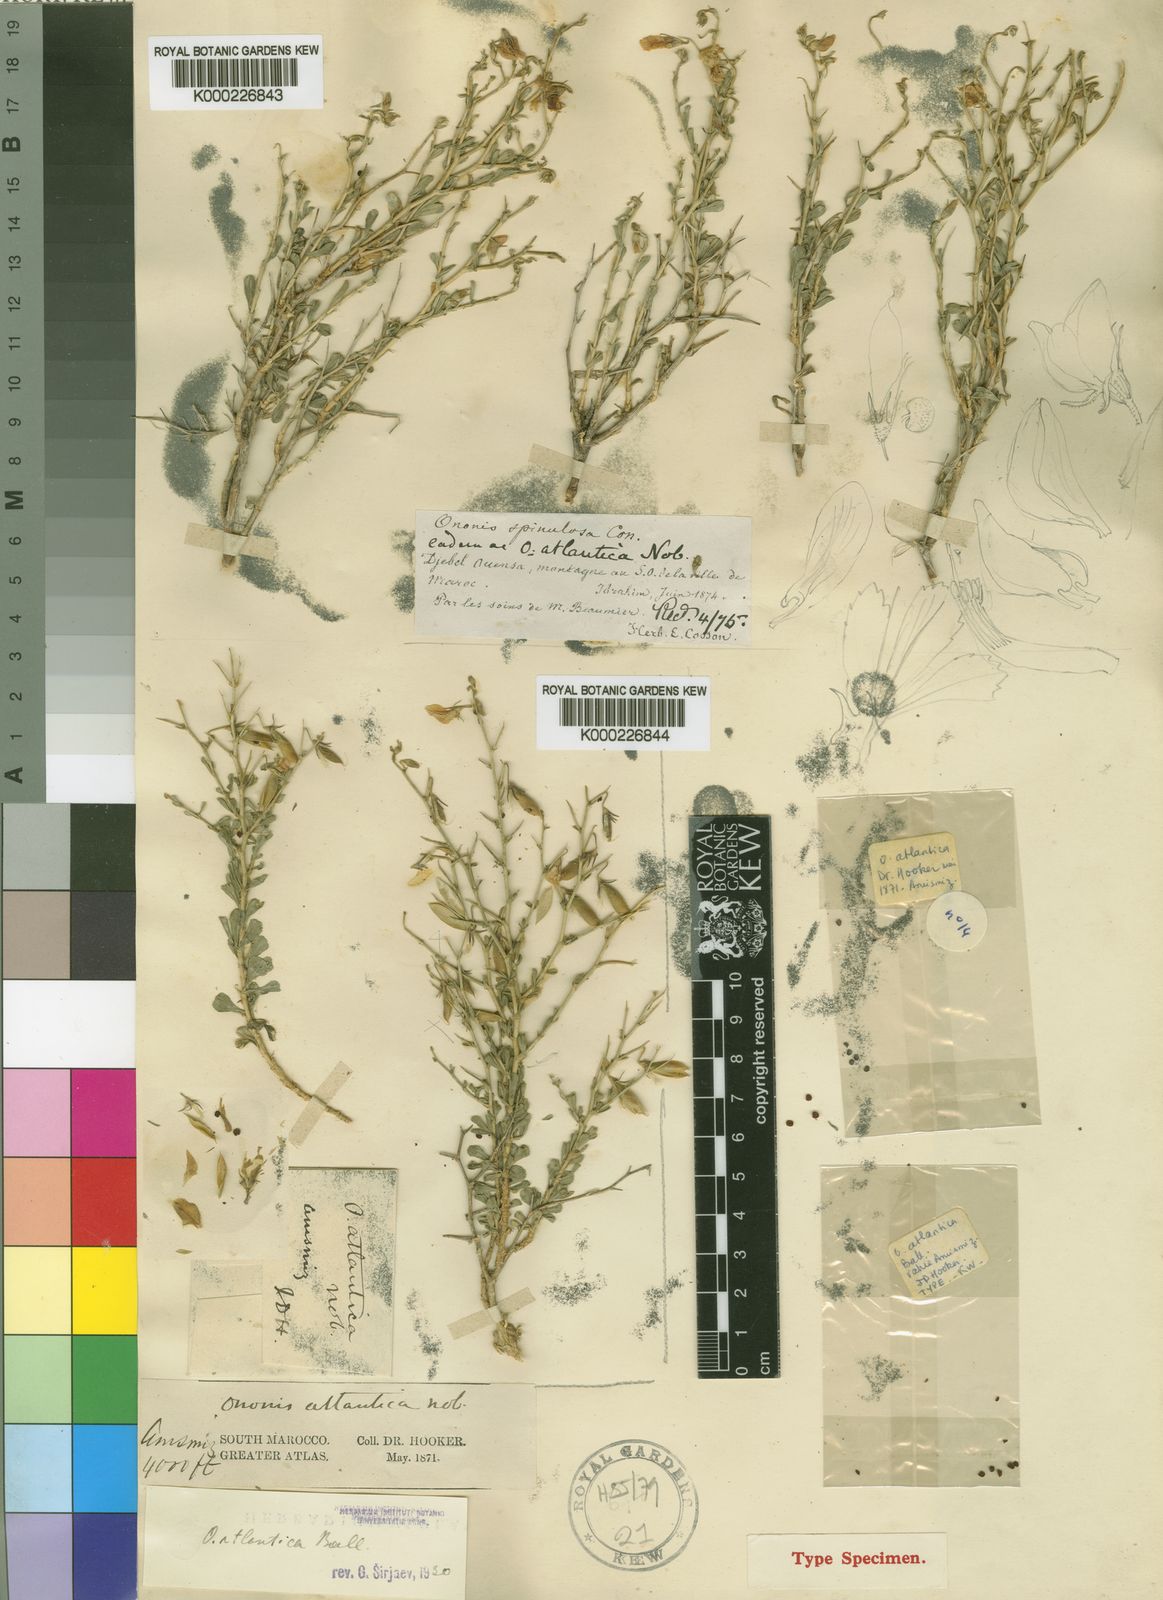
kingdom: Plantae
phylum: Tracheophyta
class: Magnoliopsida
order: Fabales
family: Fabaceae
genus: Ononis
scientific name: Ononis atlantica
